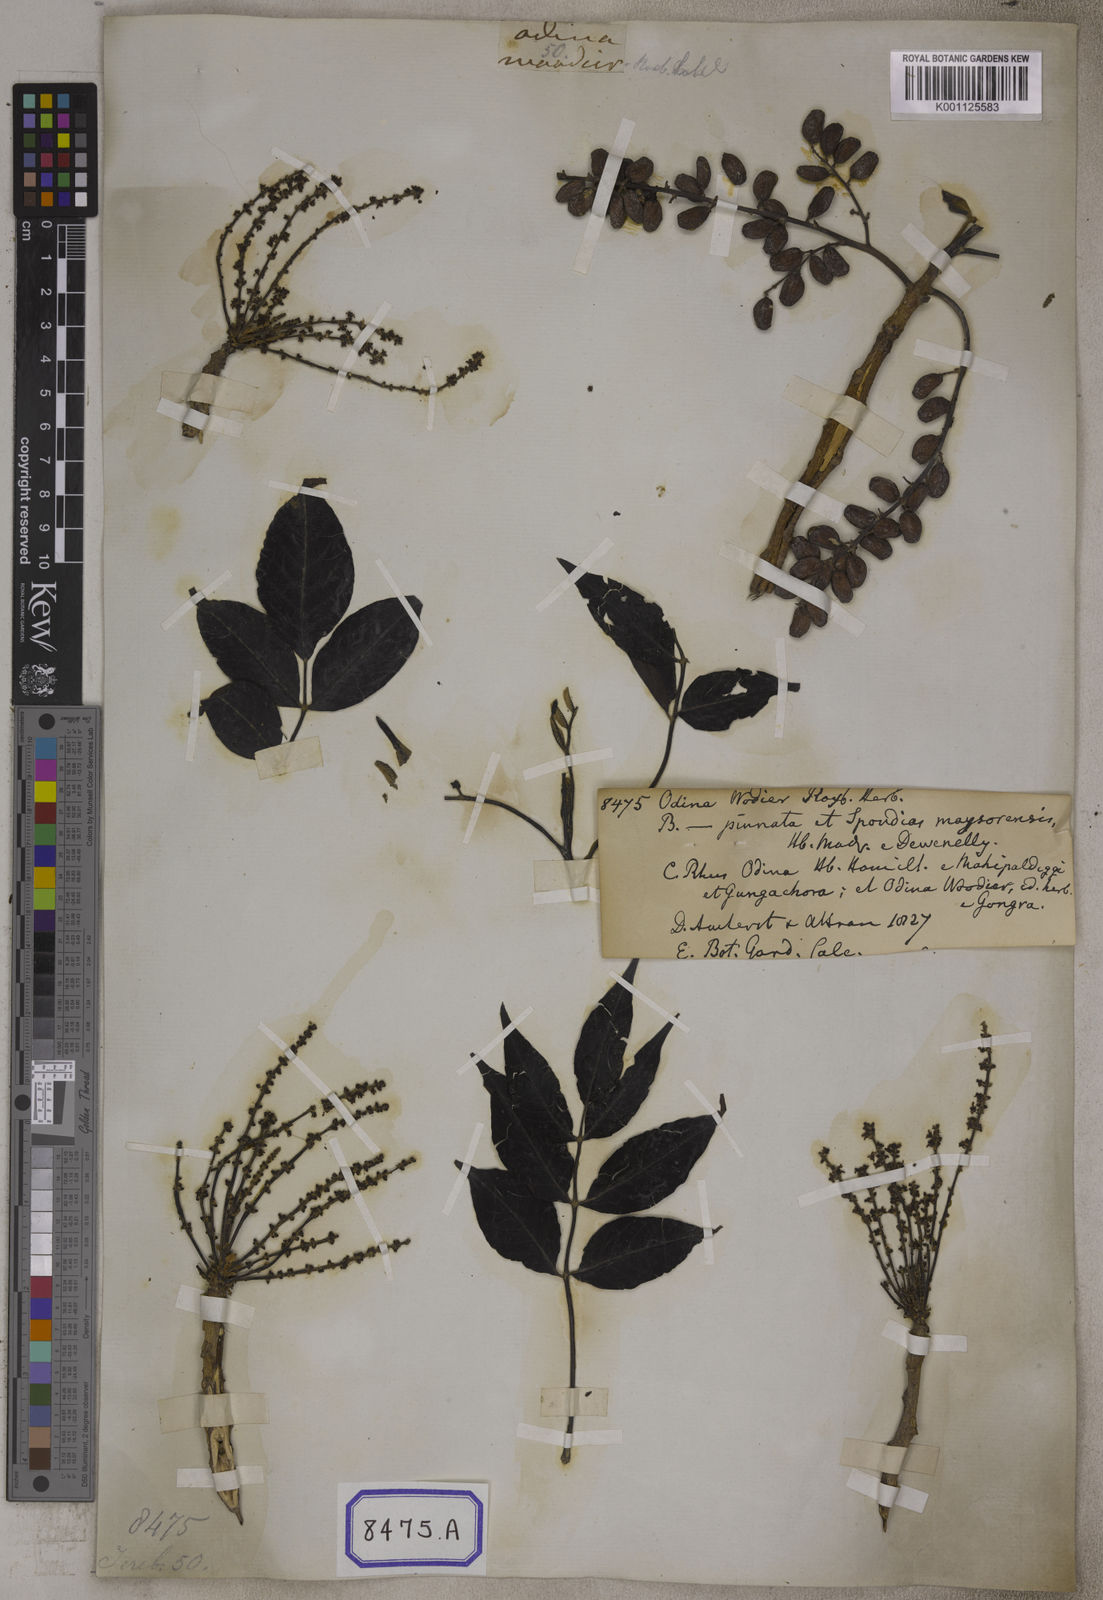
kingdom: Plantae
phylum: Tracheophyta
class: Magnoliopsida
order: Sapindales
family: Anacardiaceae
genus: Lannea
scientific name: Lannea coromandelica
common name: Indian ash tree
